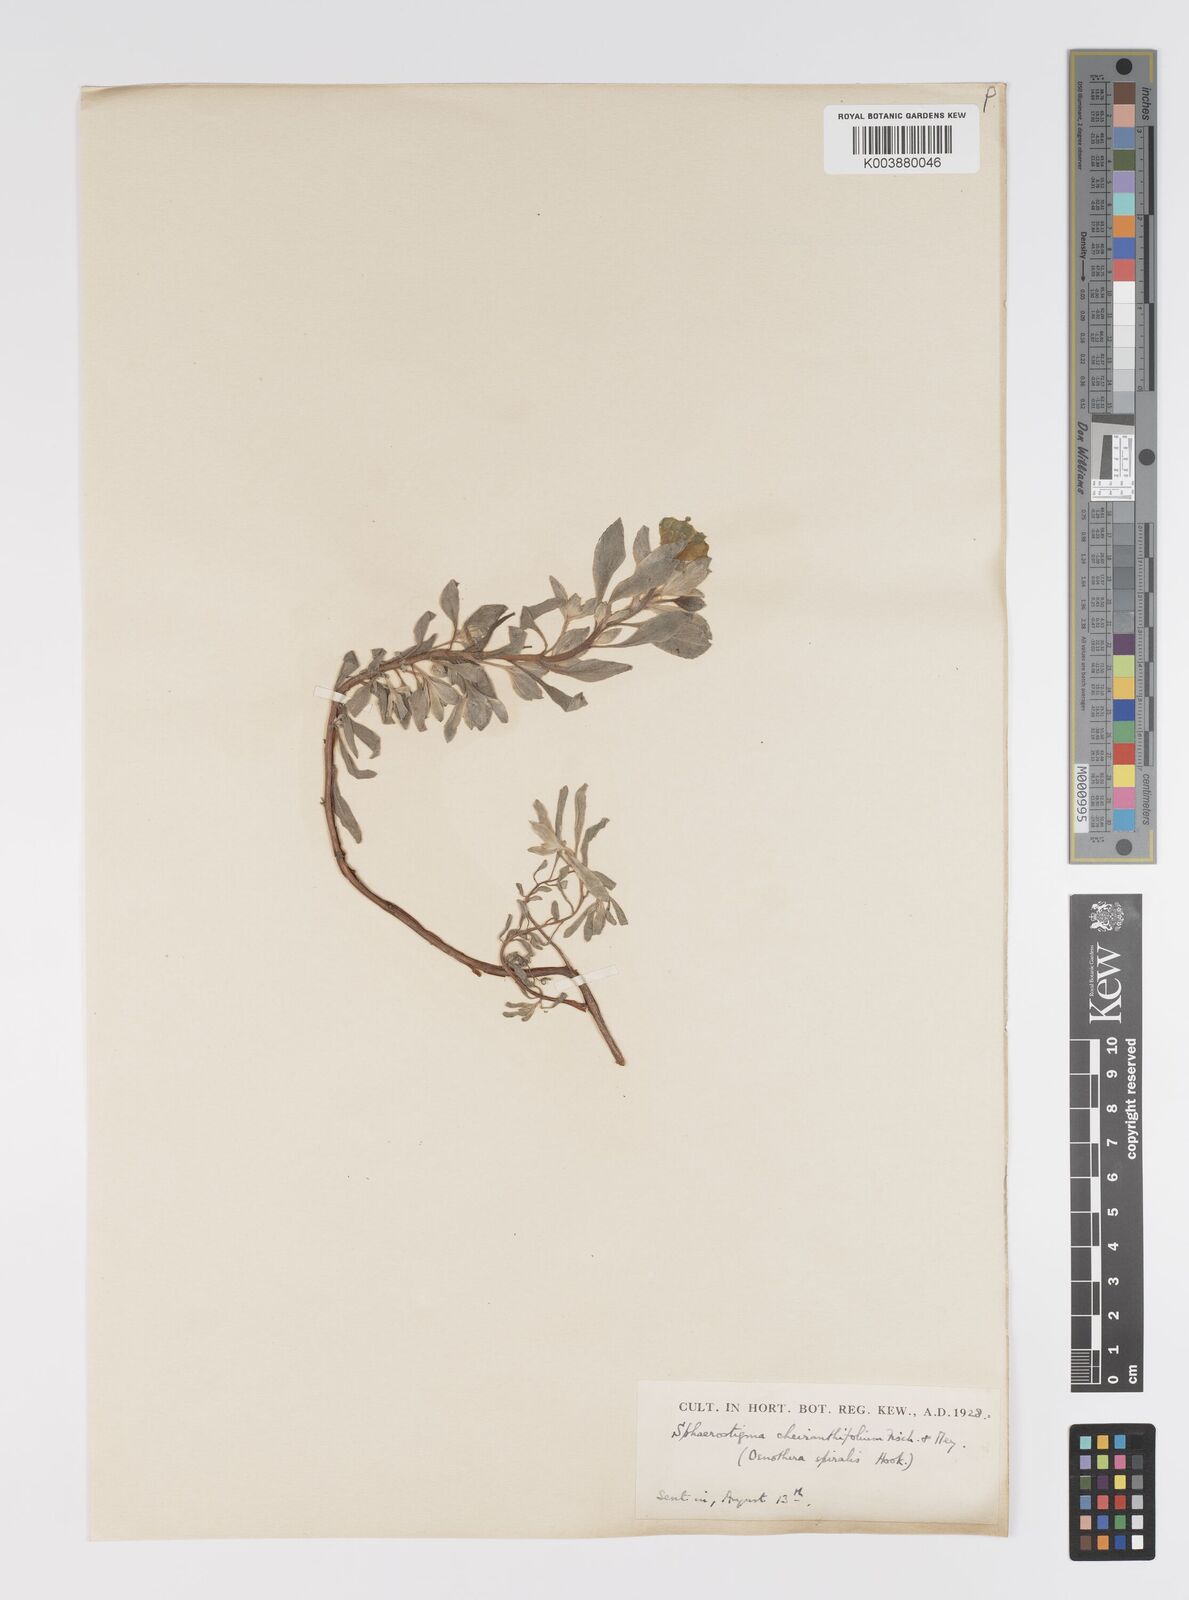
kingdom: Plantae
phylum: Tracheophyta
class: Magnoliopsida
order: Myrtales
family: Onagraceae
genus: Camissoniopsis
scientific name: Camissoniopsis cheiranthifolia
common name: Beach suncup
